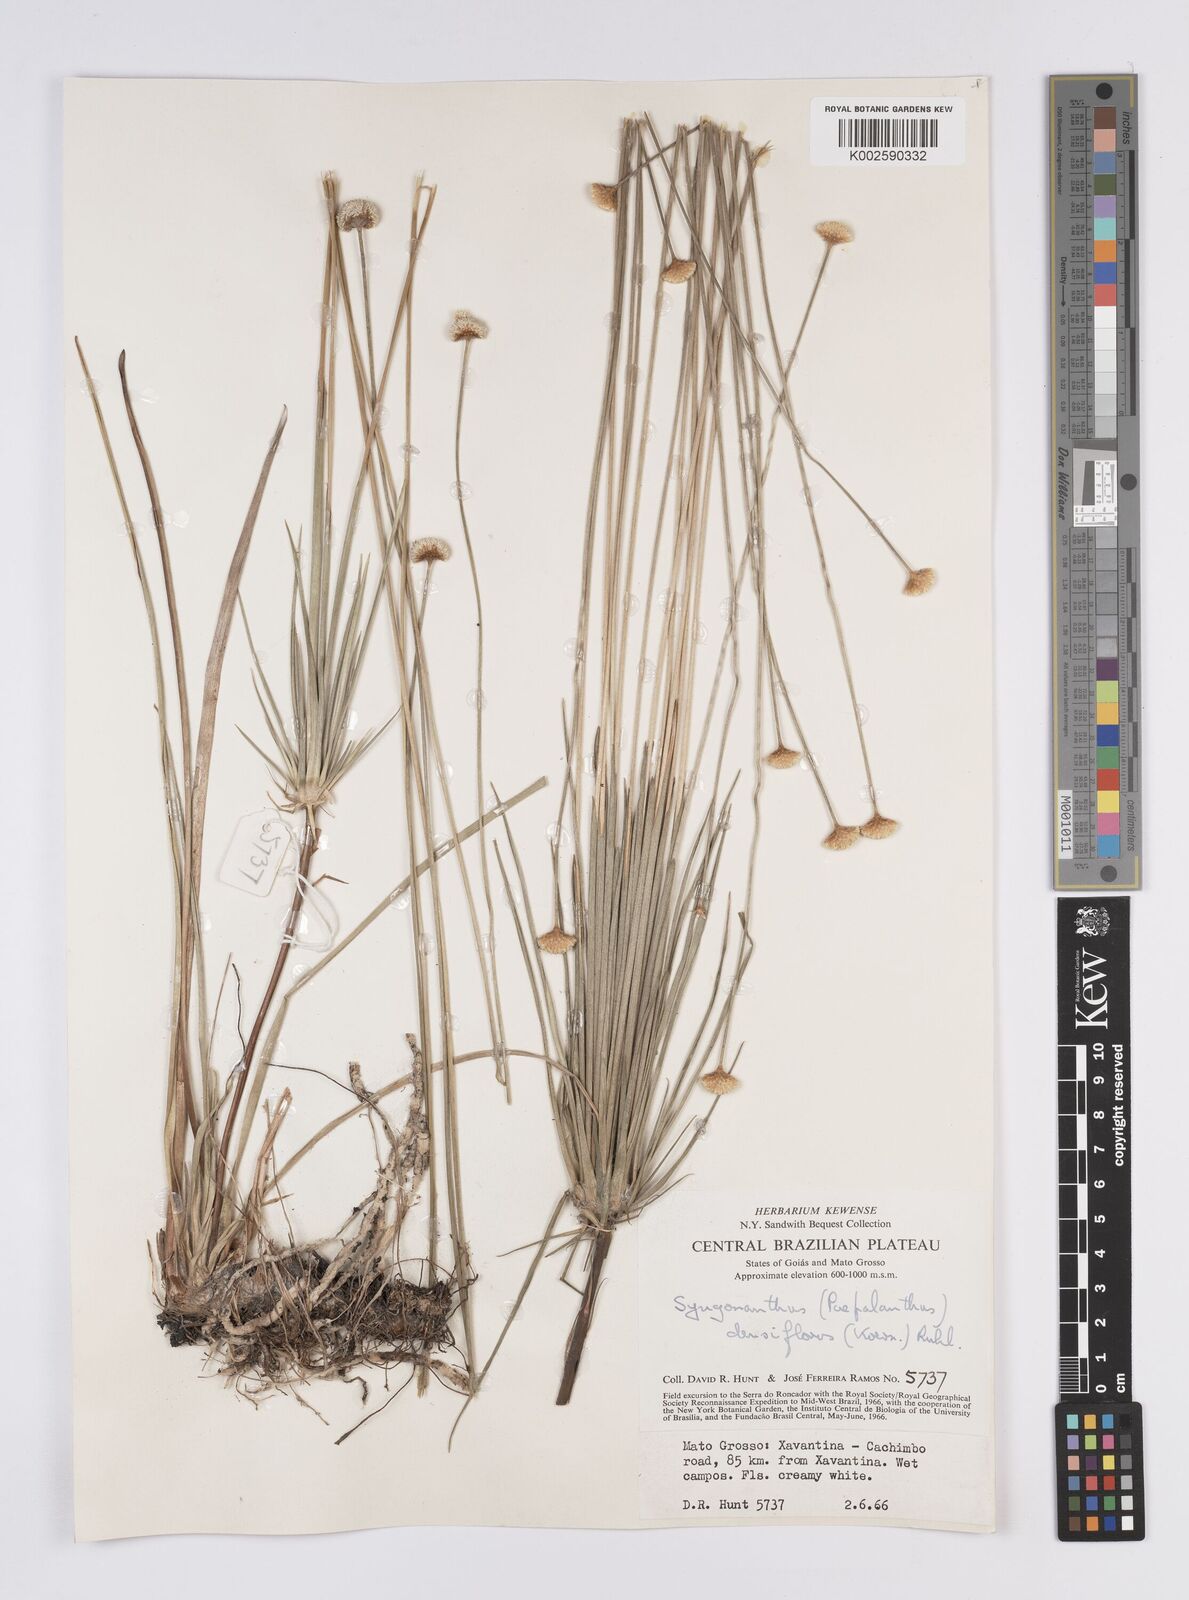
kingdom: Plantae
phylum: Tracheophyta
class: Liliopsida
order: Poales
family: Eriocaulaceae
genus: Syngonanthus
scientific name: Syngonanthus densiflorus
